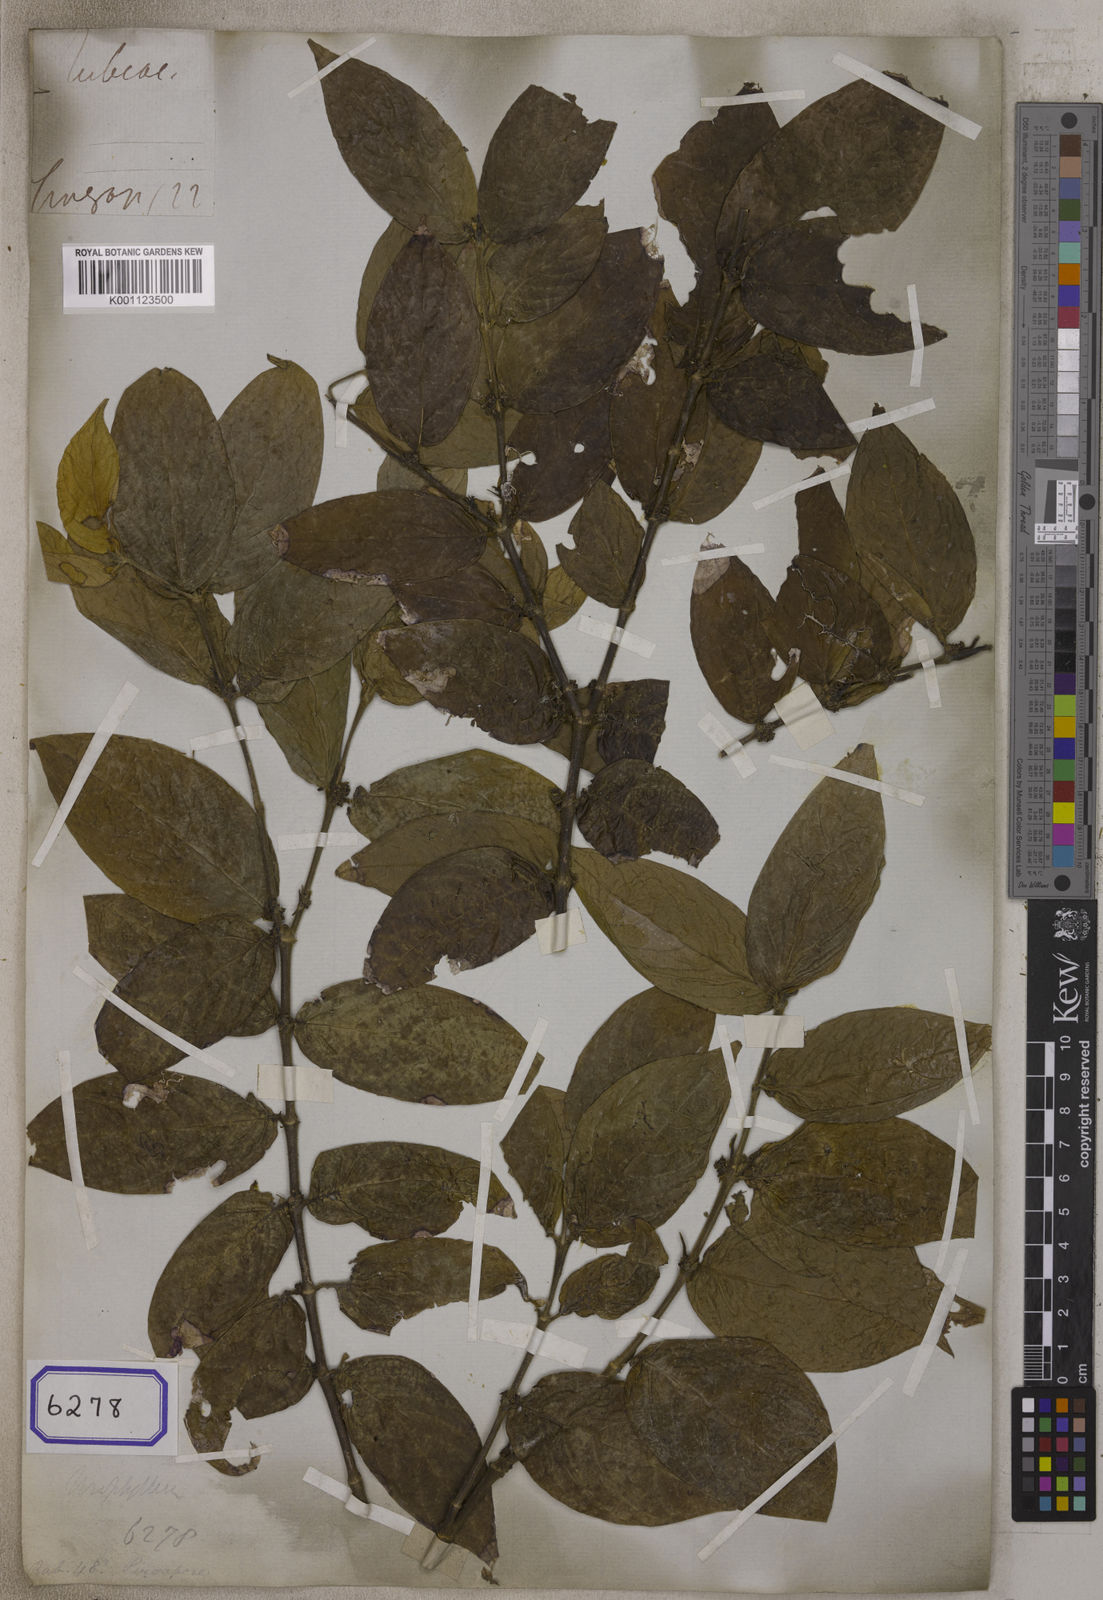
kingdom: Plantae
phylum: Tracheophyta
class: Magnoliopsida
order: Gentianales
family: Rubiaceae
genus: Urophyllum
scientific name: Urophyllum hirsutum
